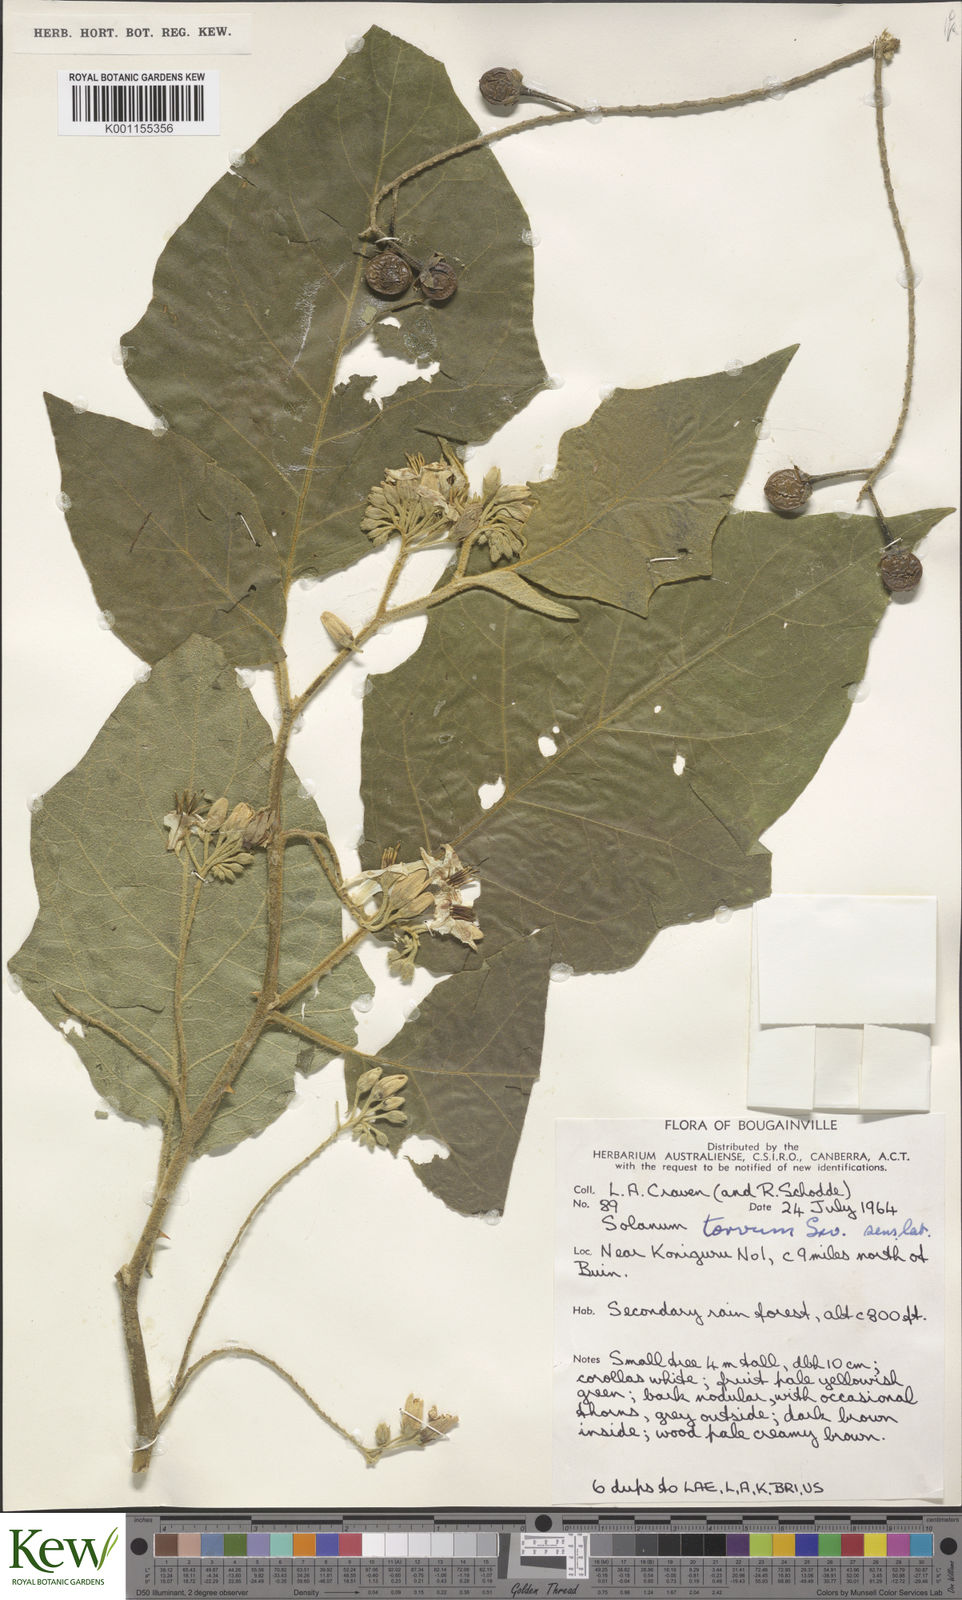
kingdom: Plantae
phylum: Tracheophyta
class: Magnoliopsida
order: Solanales
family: Solanaceae
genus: Solanum
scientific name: Solanum torvum
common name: Turkey berry
